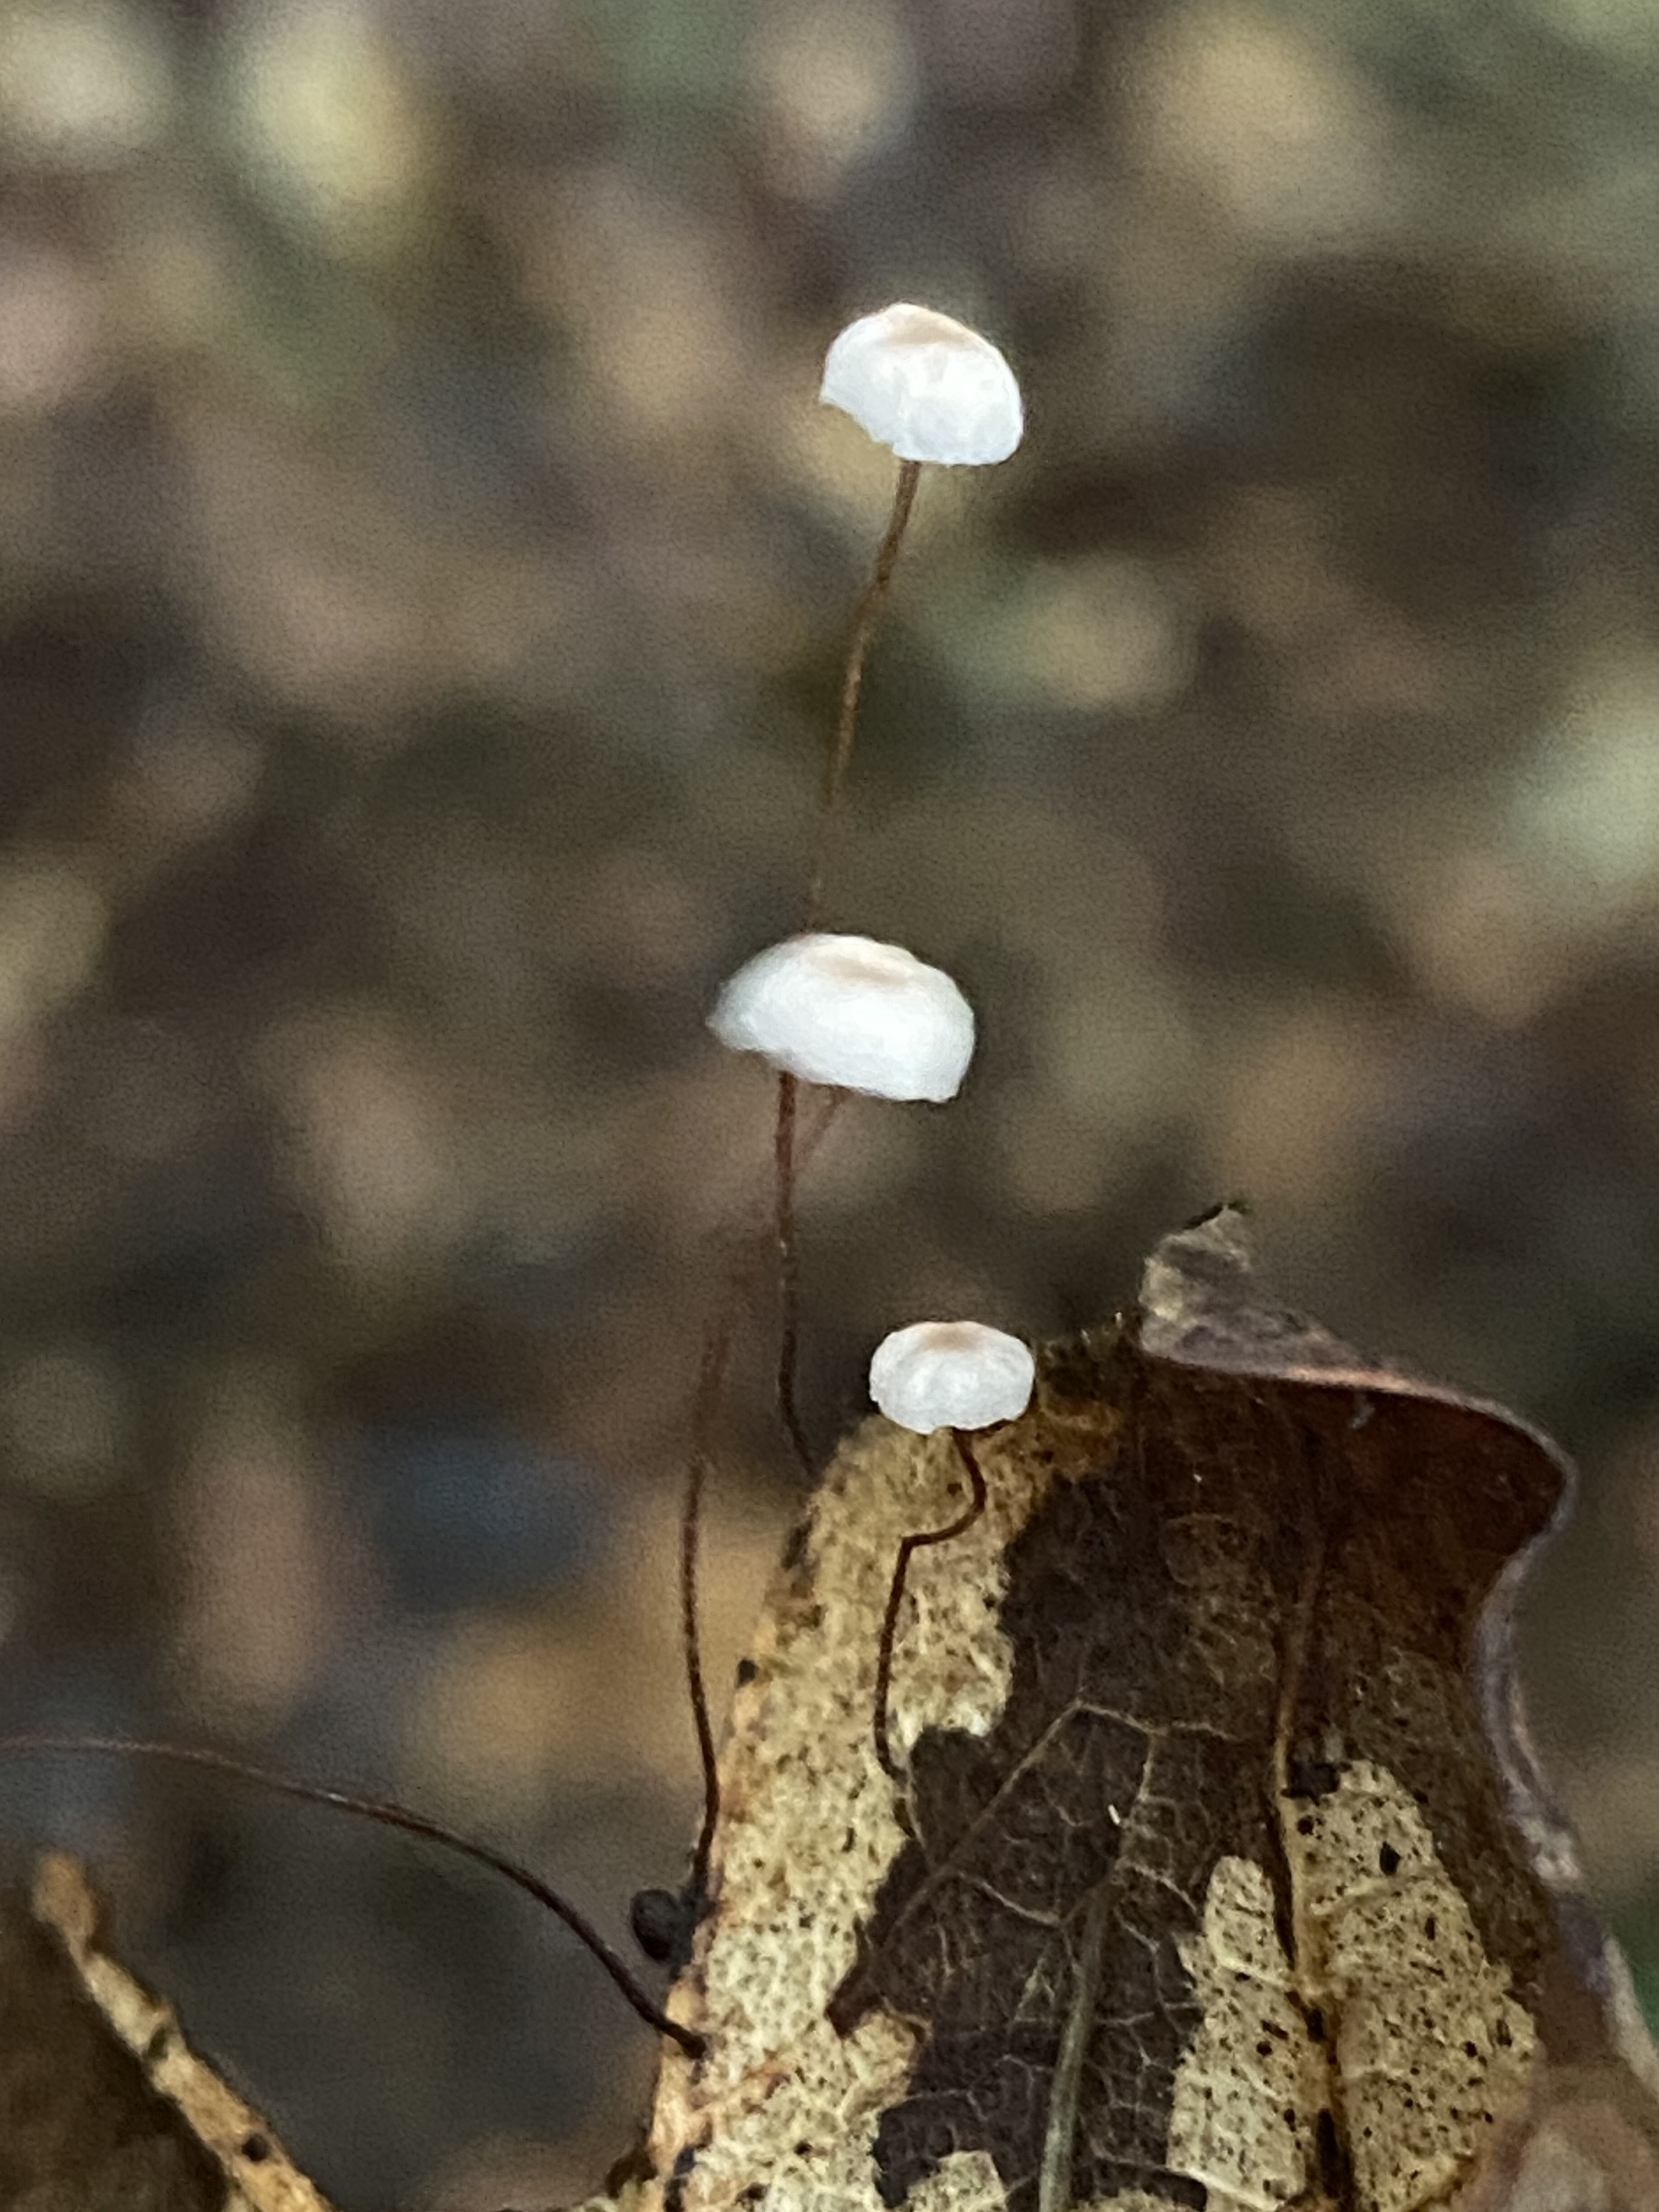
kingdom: Fungi
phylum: Basidiomycota
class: Agaricomycetes
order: Agaricales
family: Marasmiaceae
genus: Marasmius
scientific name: Marasmius
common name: bruskhat
